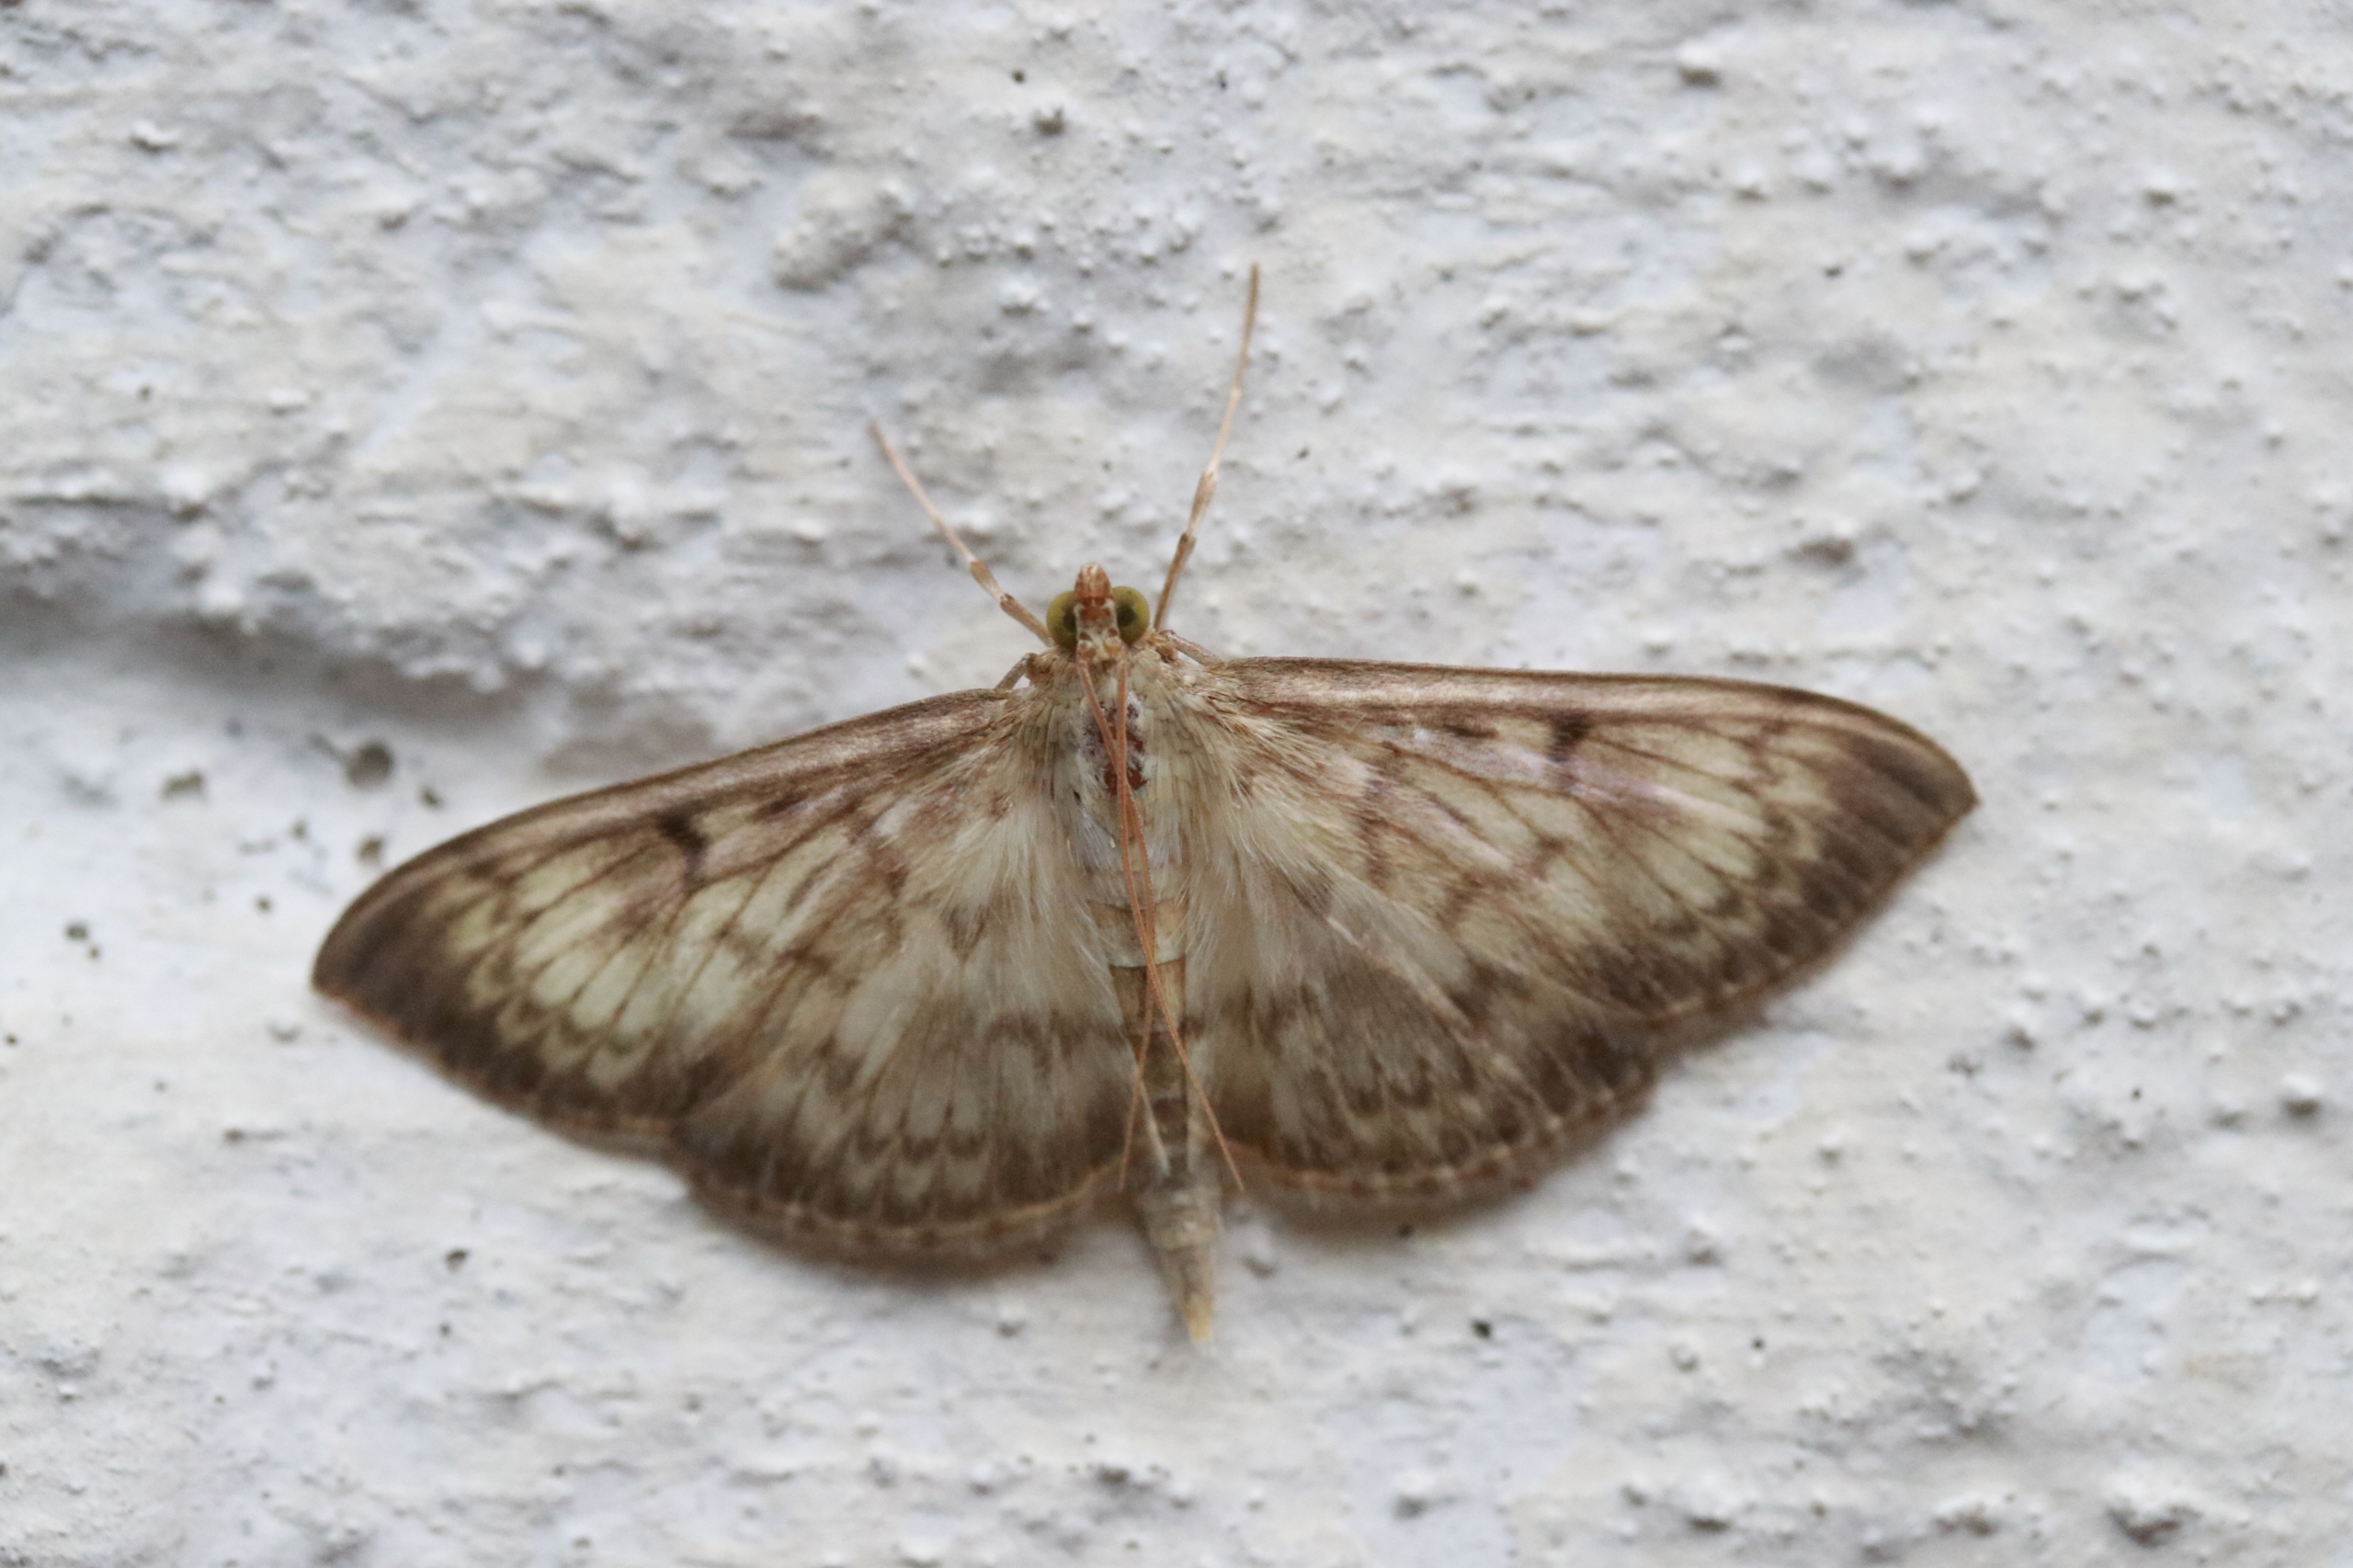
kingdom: Animalia
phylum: Arthropoda
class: Insecta
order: Lepidoptera
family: Crambidae
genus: Patania
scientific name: Patania ruralis
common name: Perlemorshalvmøl
